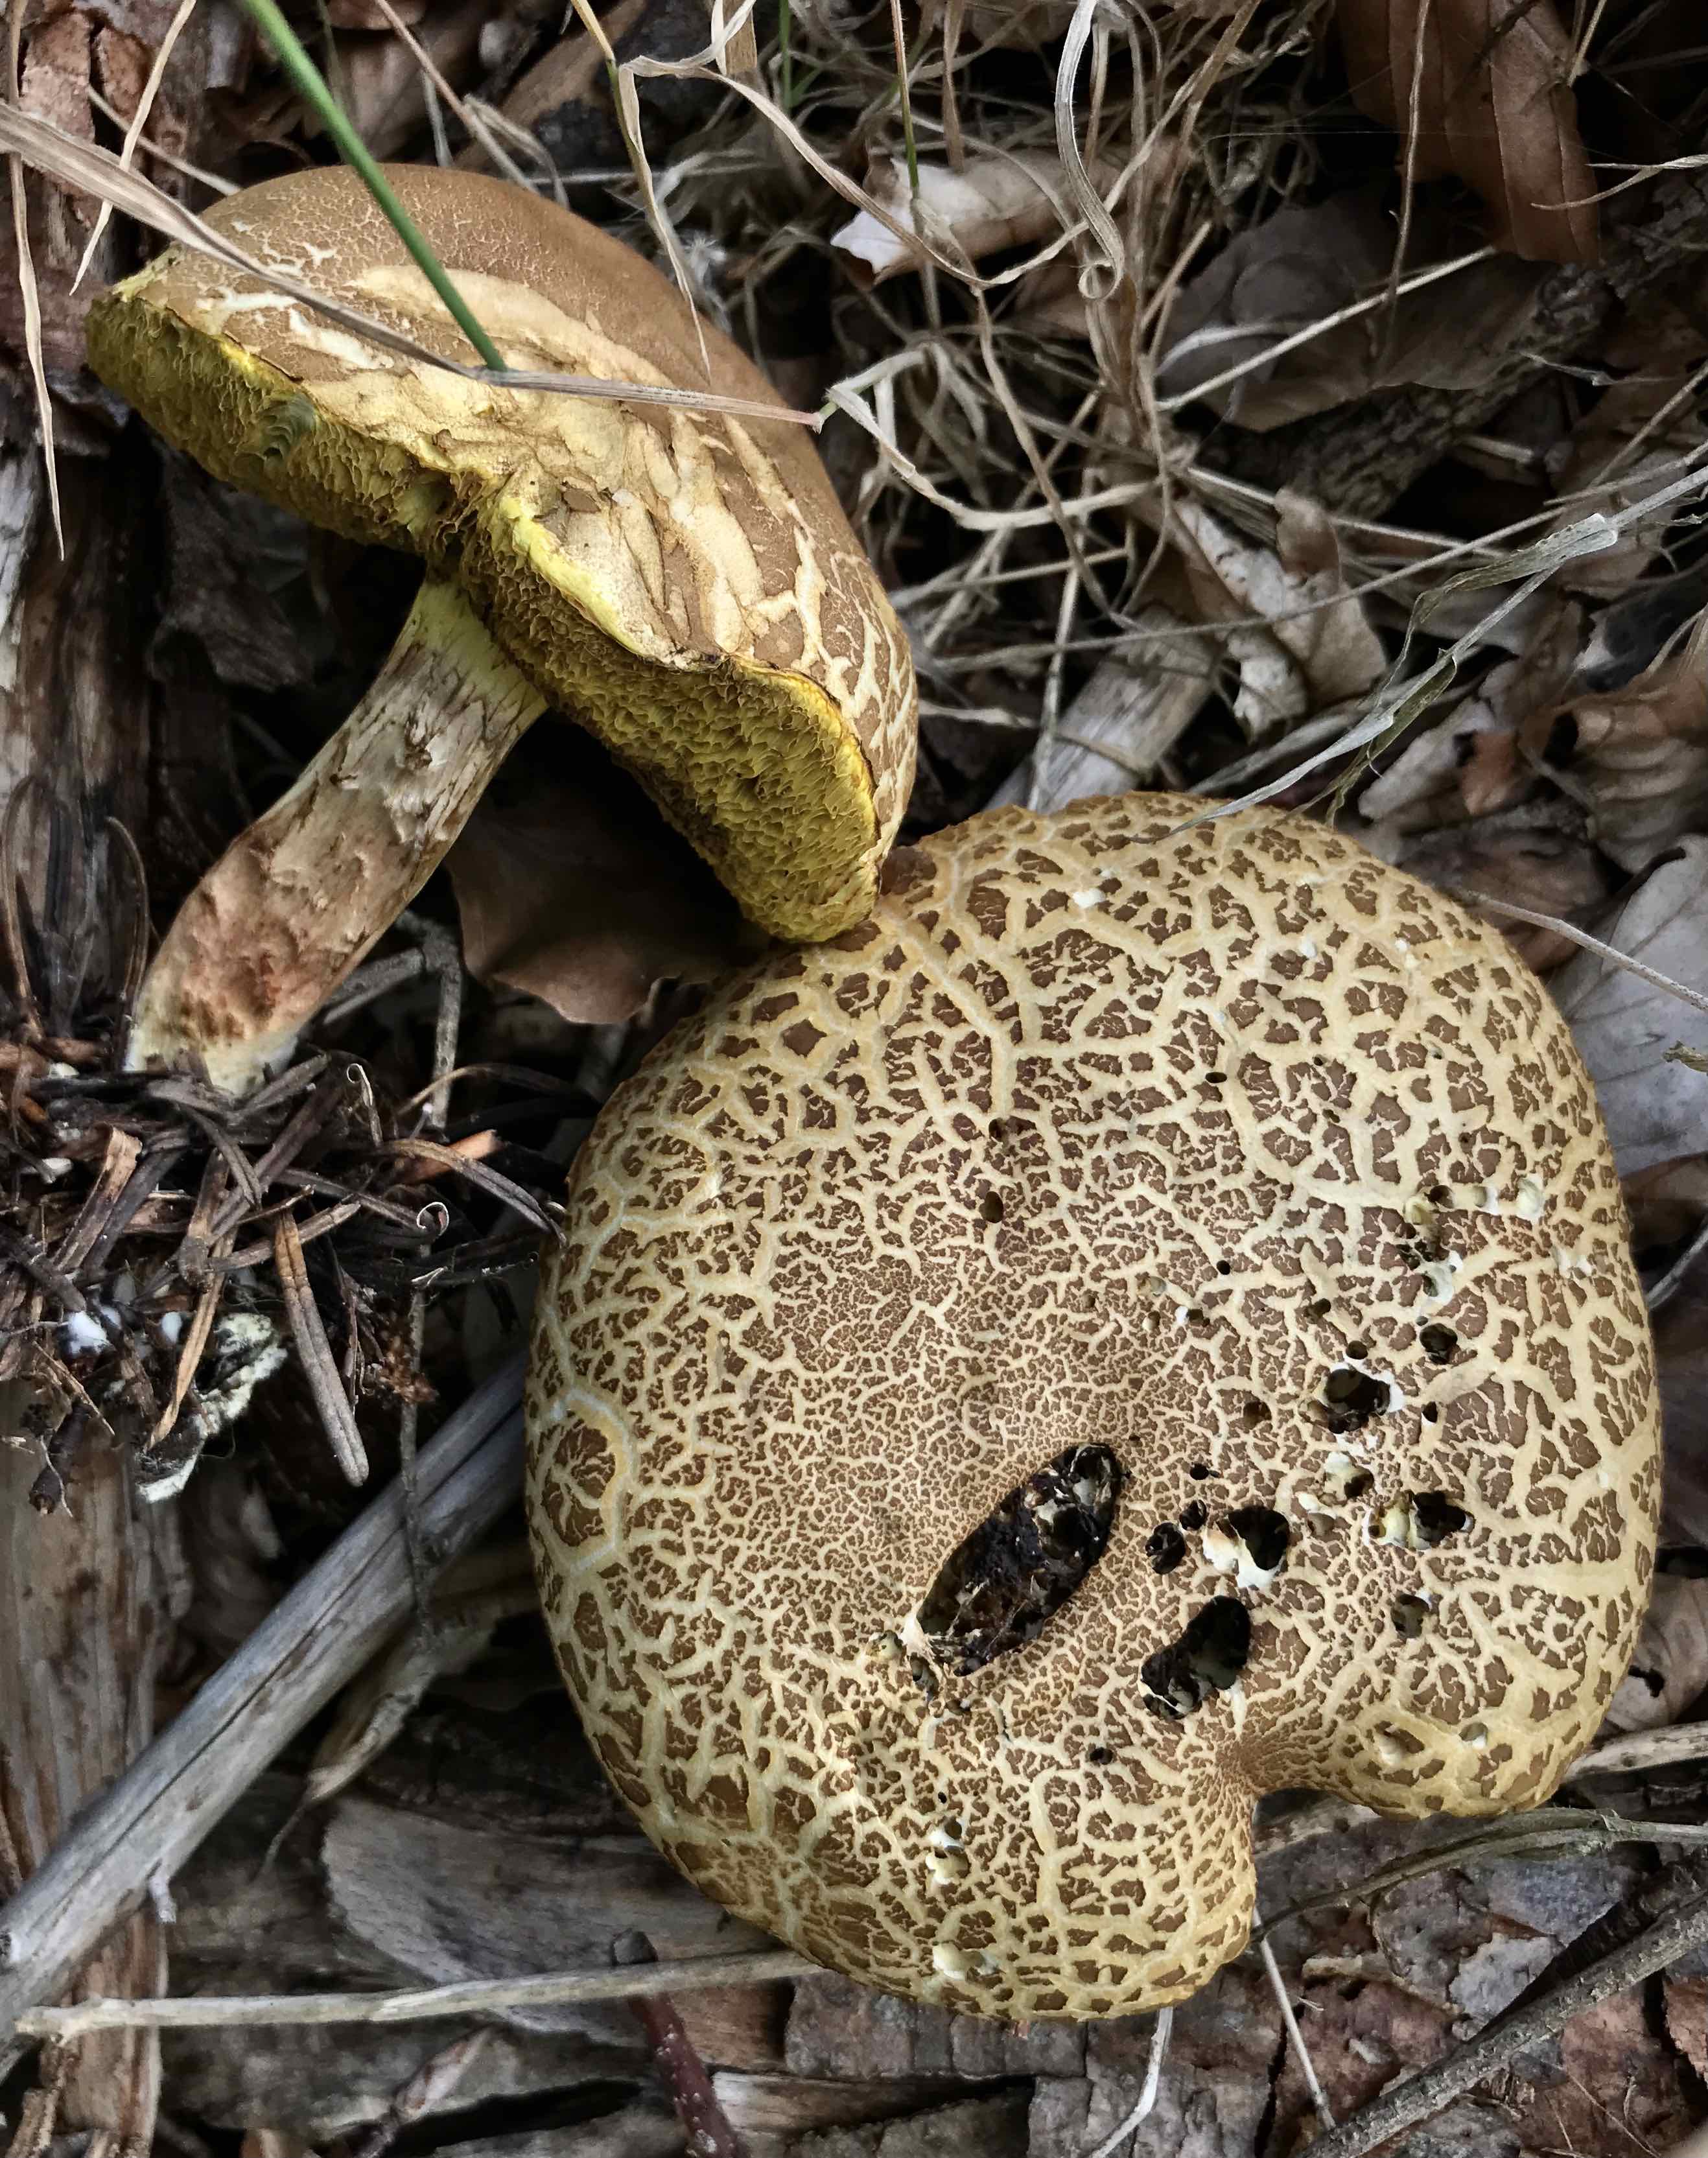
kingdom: Fungi
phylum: Basidiomycota
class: Agaricomycetes
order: Boletales
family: Boletaceae
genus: Xerocomellus
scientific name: Xerocomellus porosporus
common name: hvidsprukken rørhat
